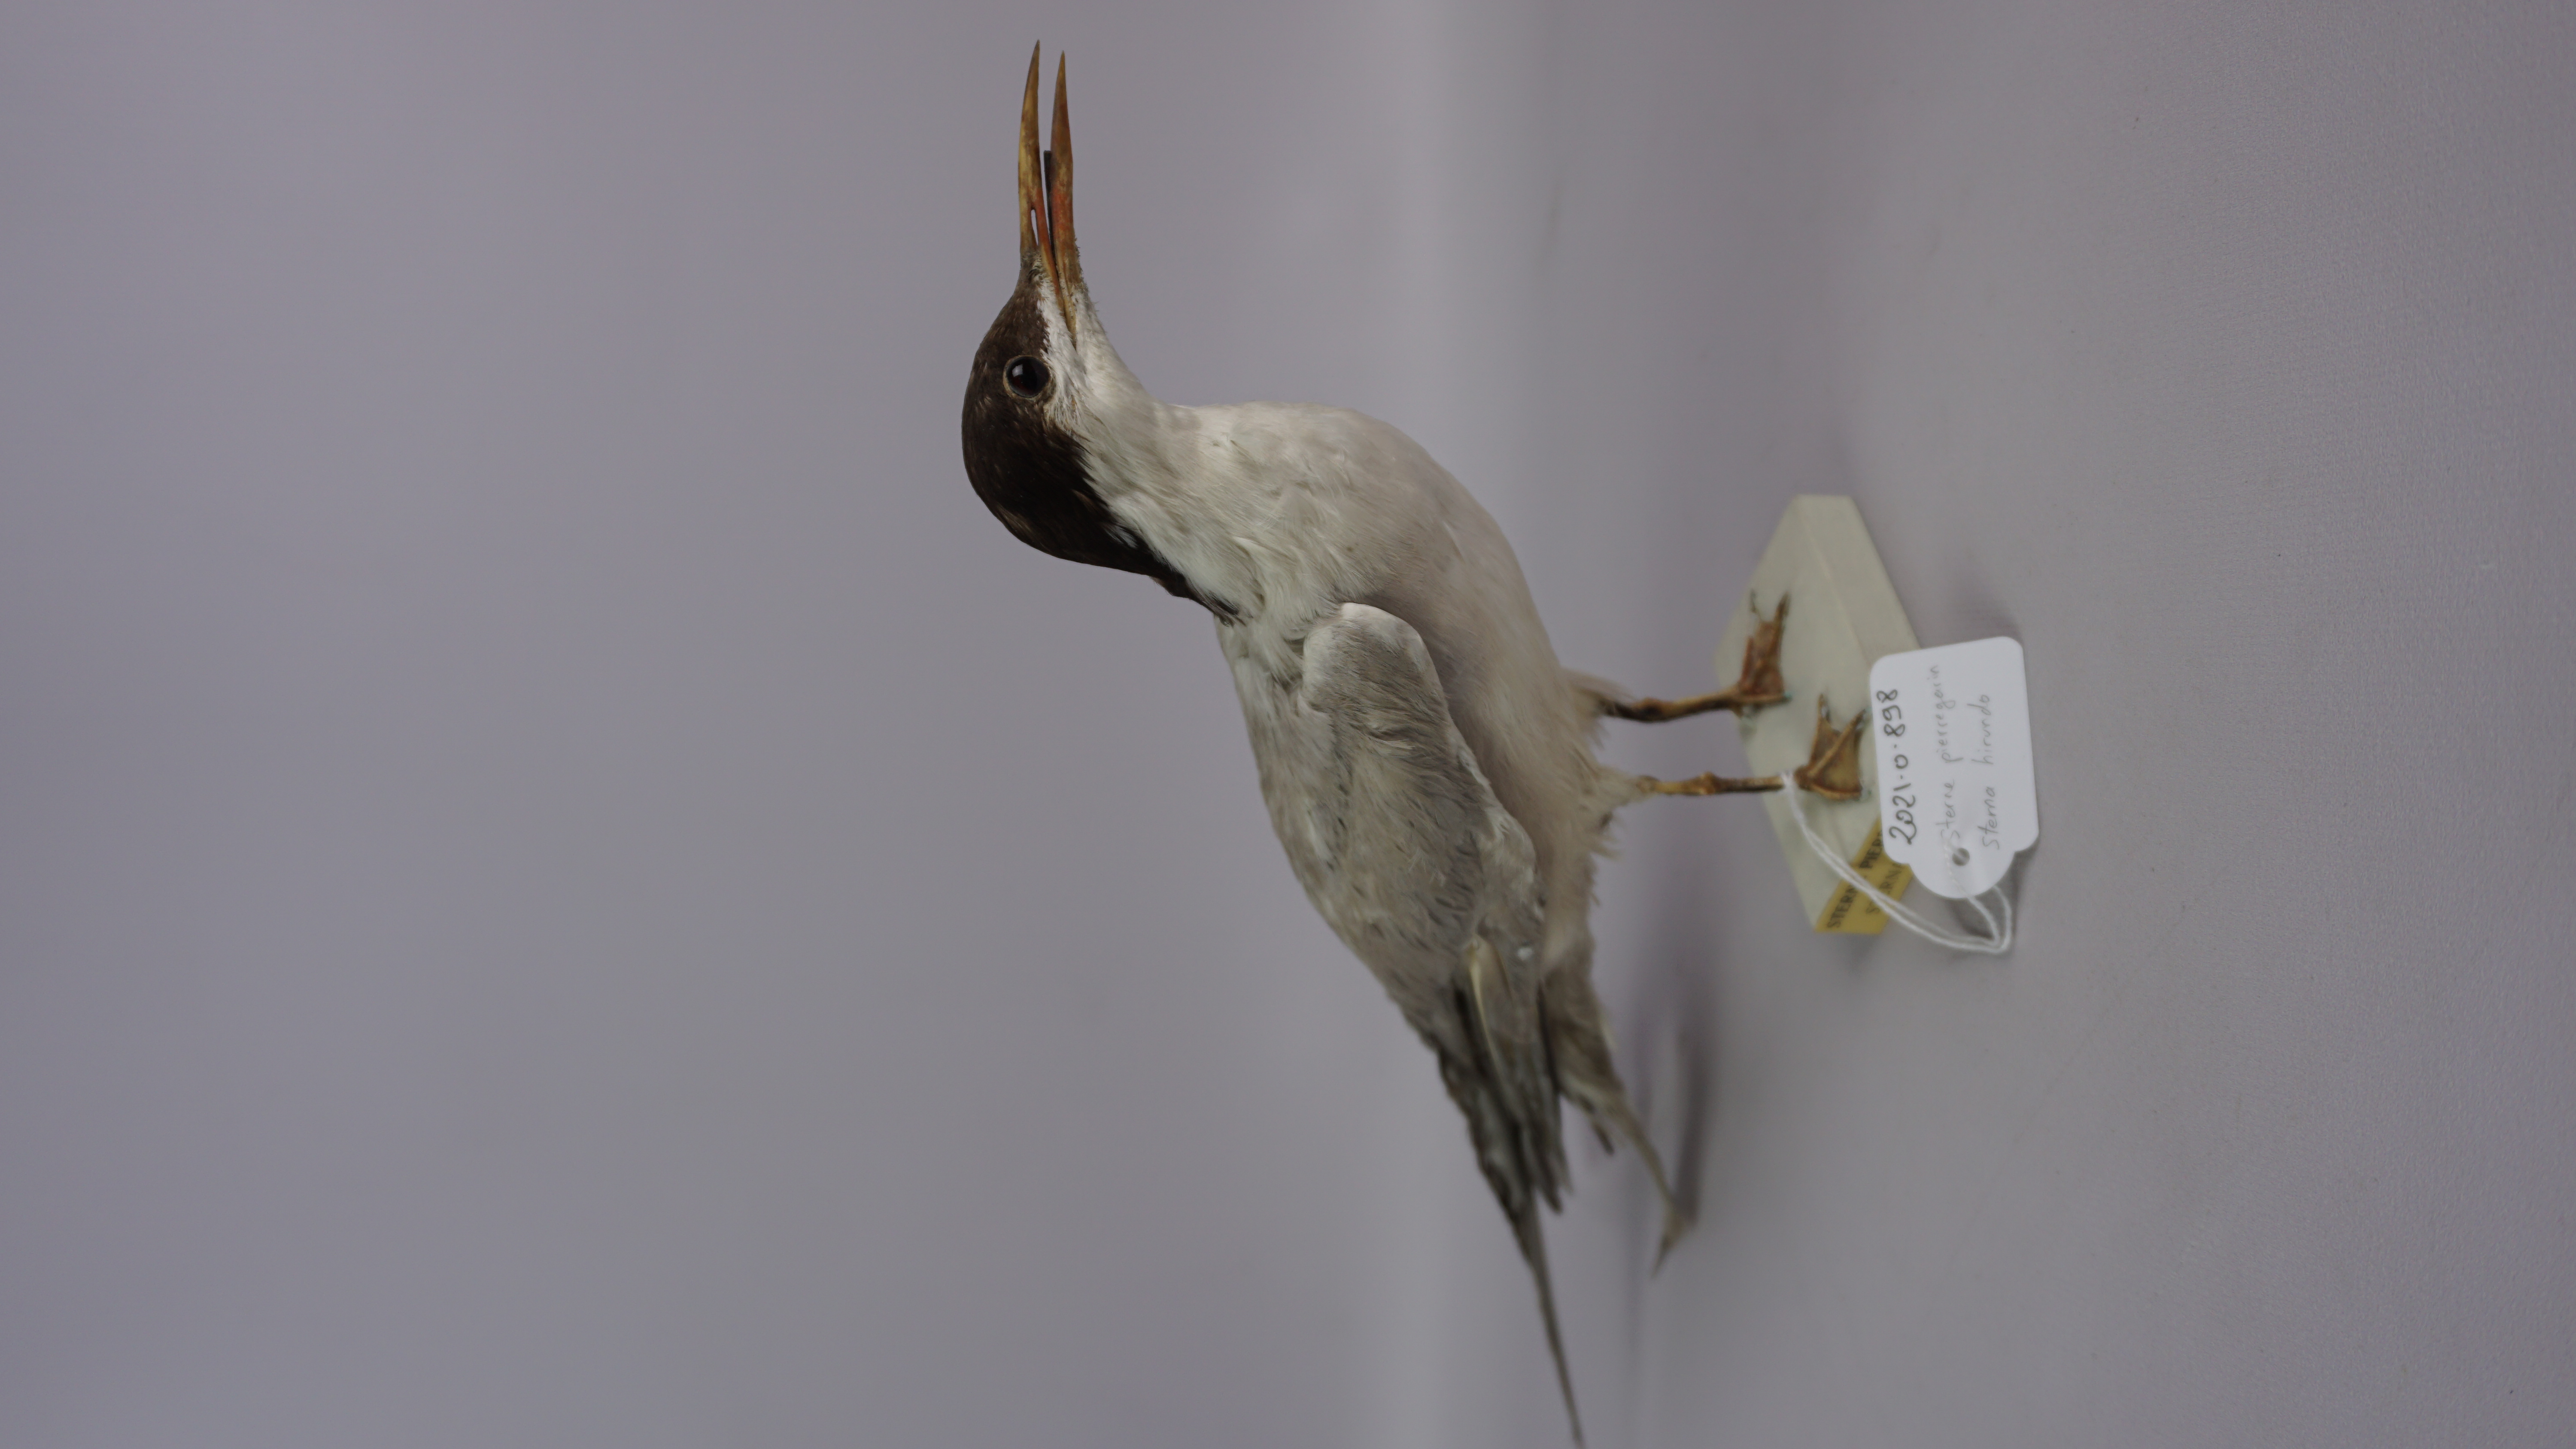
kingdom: Animalia
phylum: Chordata
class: Aves
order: Charadriiformes
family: Laridae
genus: Sterna
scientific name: Sterna hirundo
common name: Common tern
